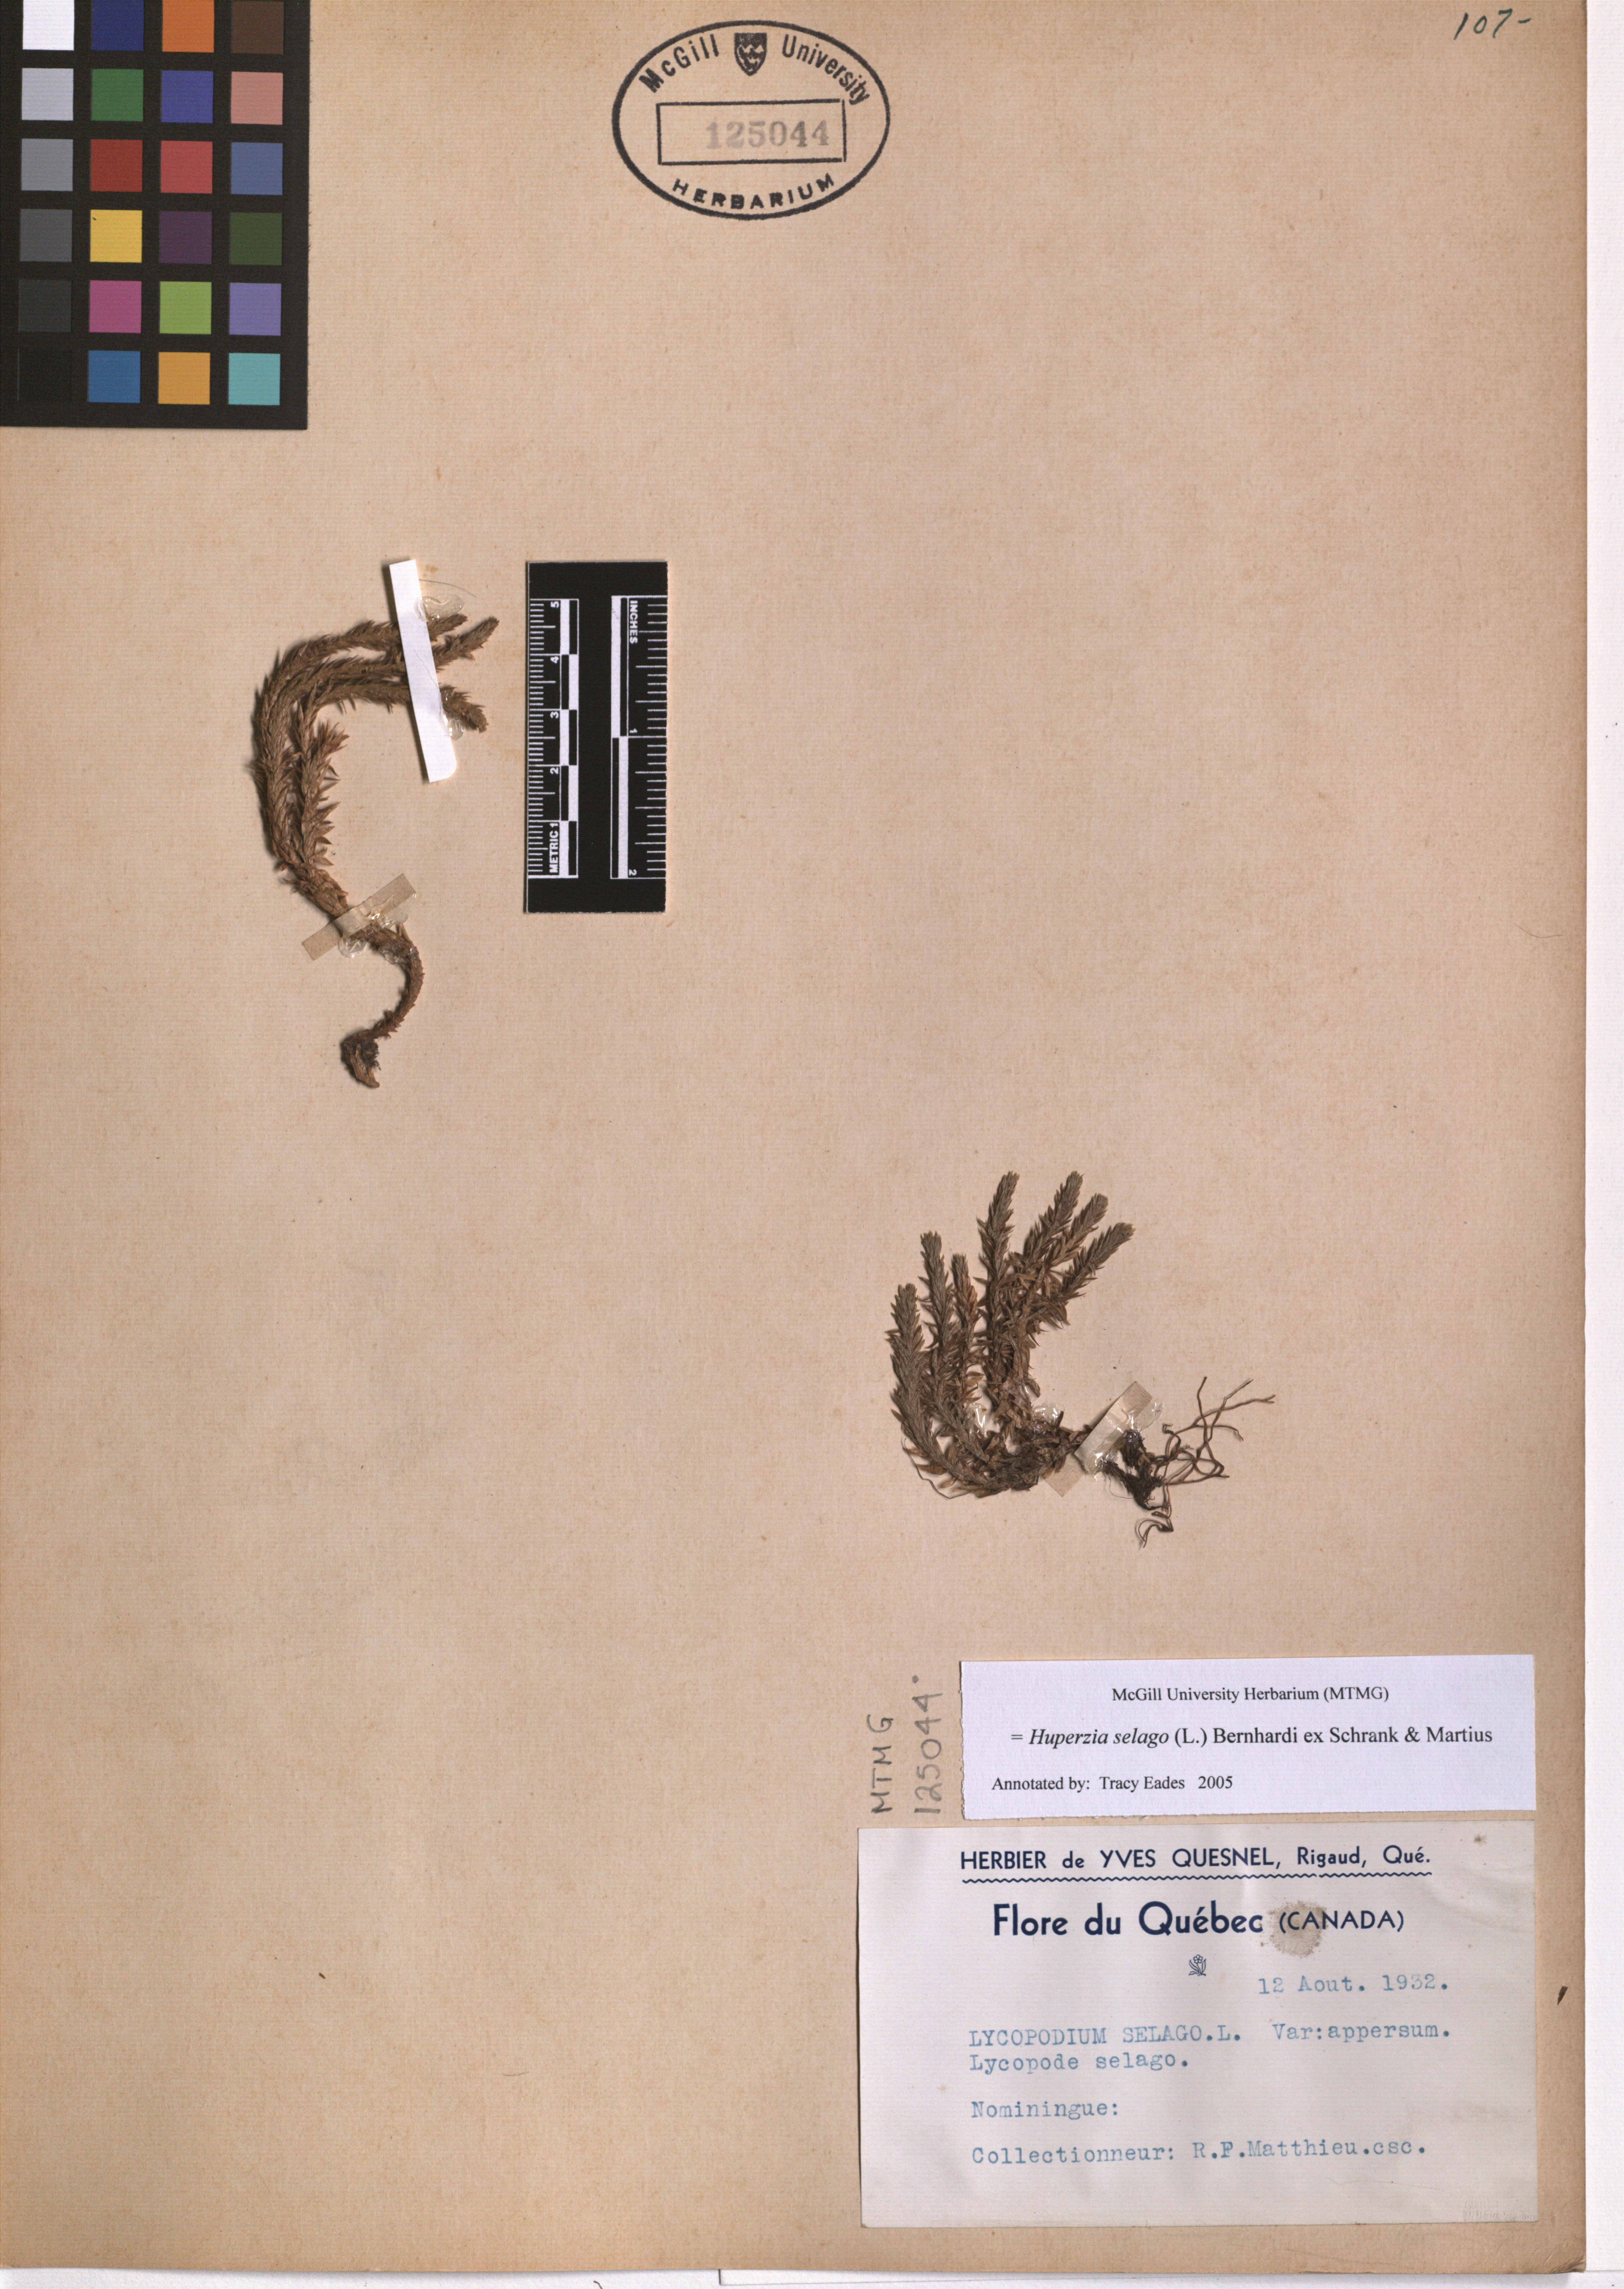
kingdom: Plantae
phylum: Tracheophyta
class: Lycopodiopsida
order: Lycopodiales
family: Lycopodiaceae
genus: Huperzia
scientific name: Huperzia selago
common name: Northern firmoss
